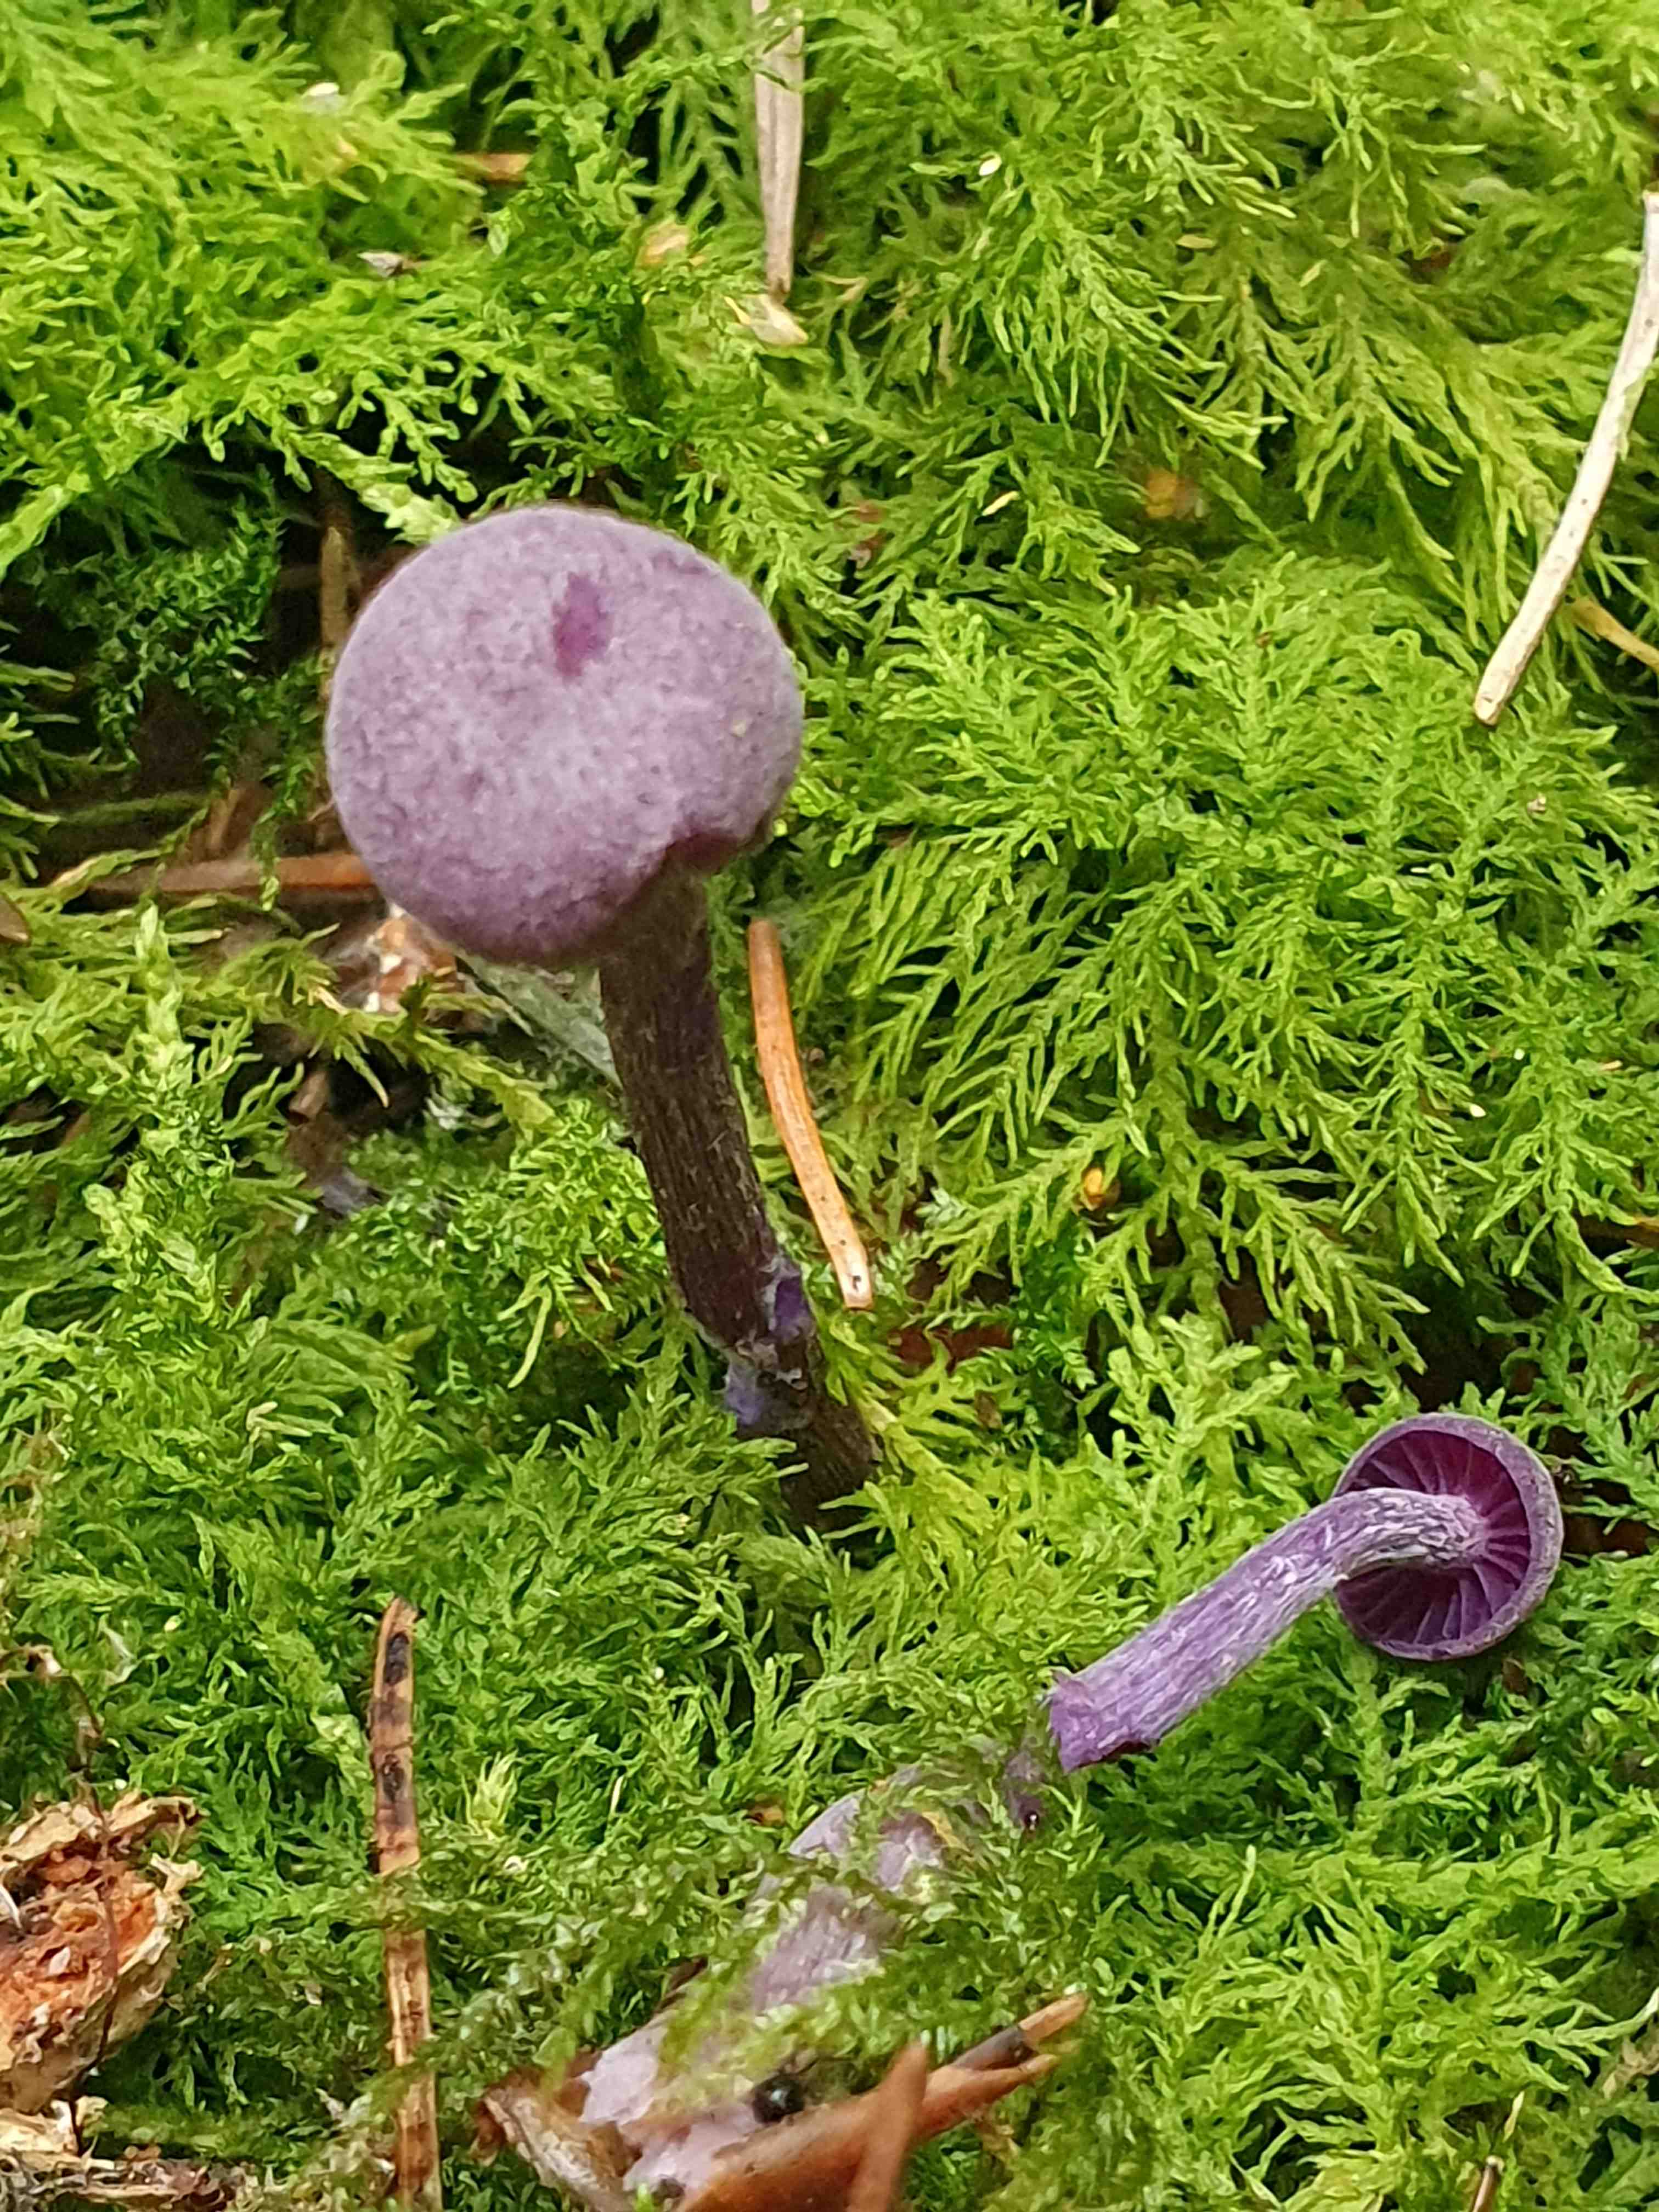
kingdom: Fungi
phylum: Basidiomycota
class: Agaricomycetes
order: Agaricales
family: Hydnangiaceae
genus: Laccaria
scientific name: Laccaria amethystina
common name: violet ametysthat
